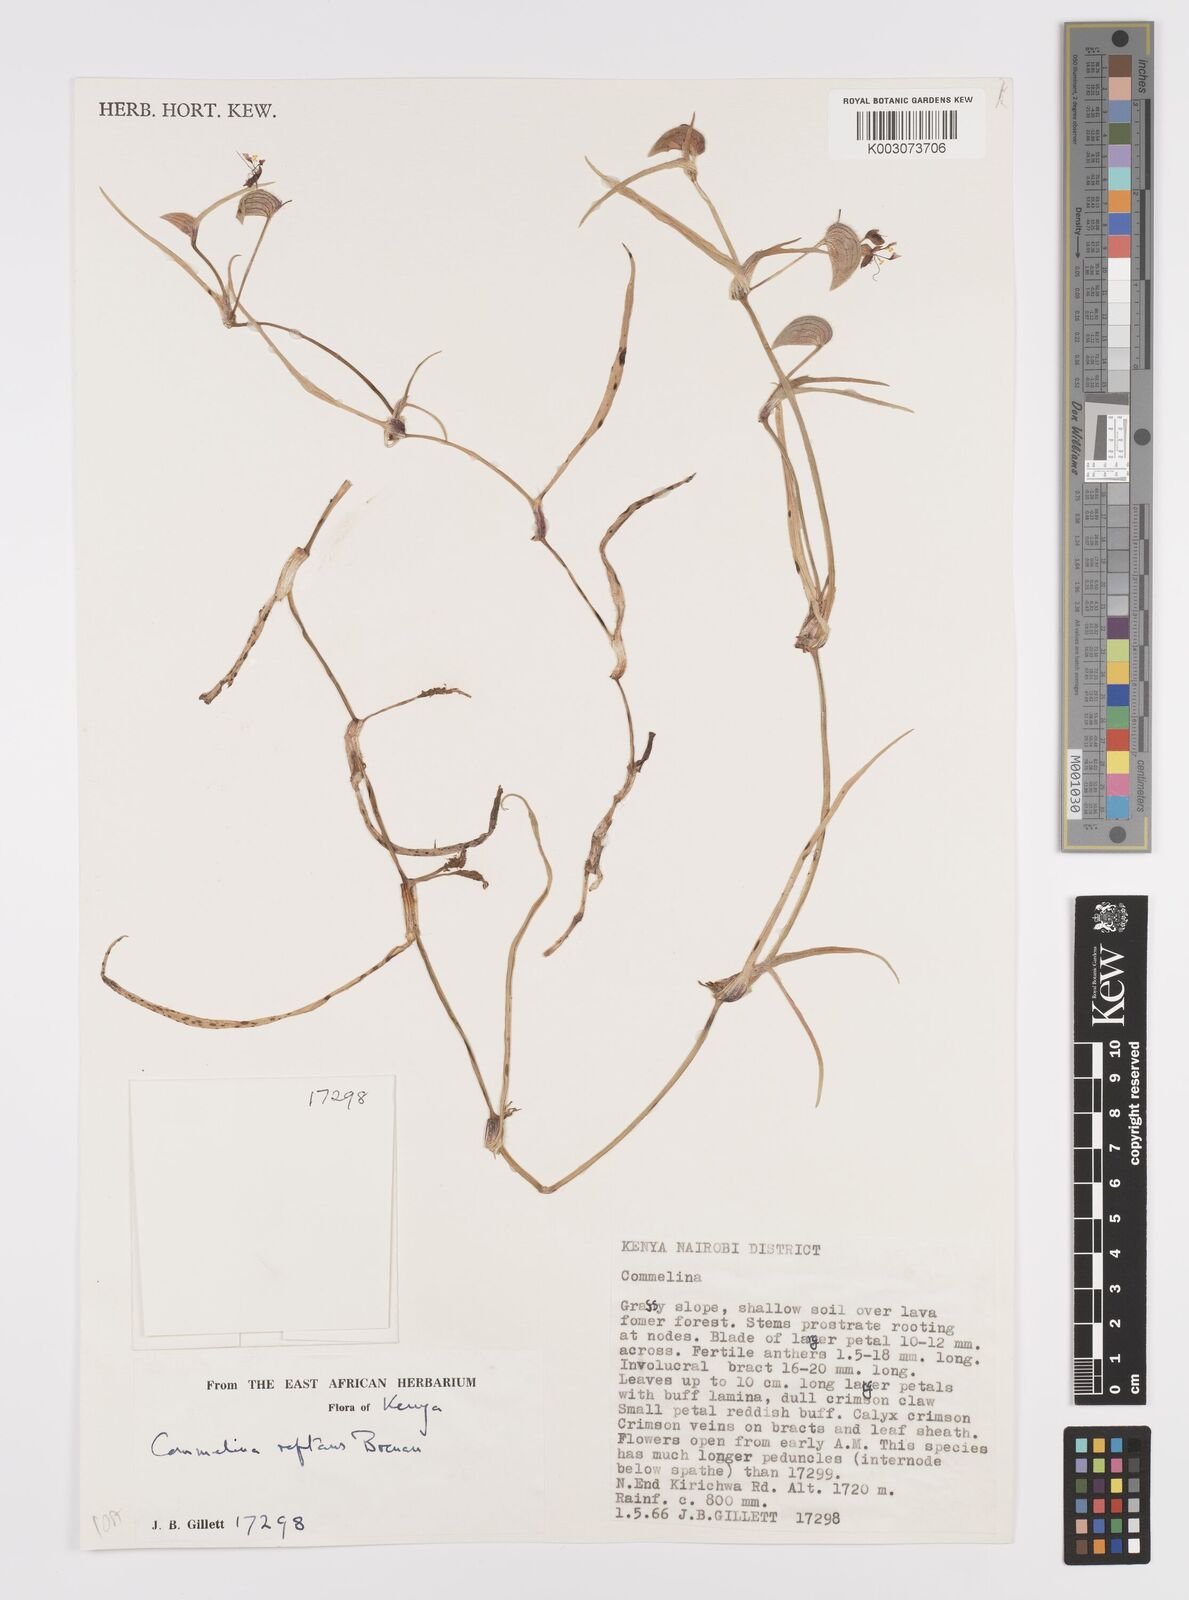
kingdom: Plantae
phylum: Tracheophyta
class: Liliopsida
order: Commelinales
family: Commelinaceae
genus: Commelina
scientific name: Commelina reptans
